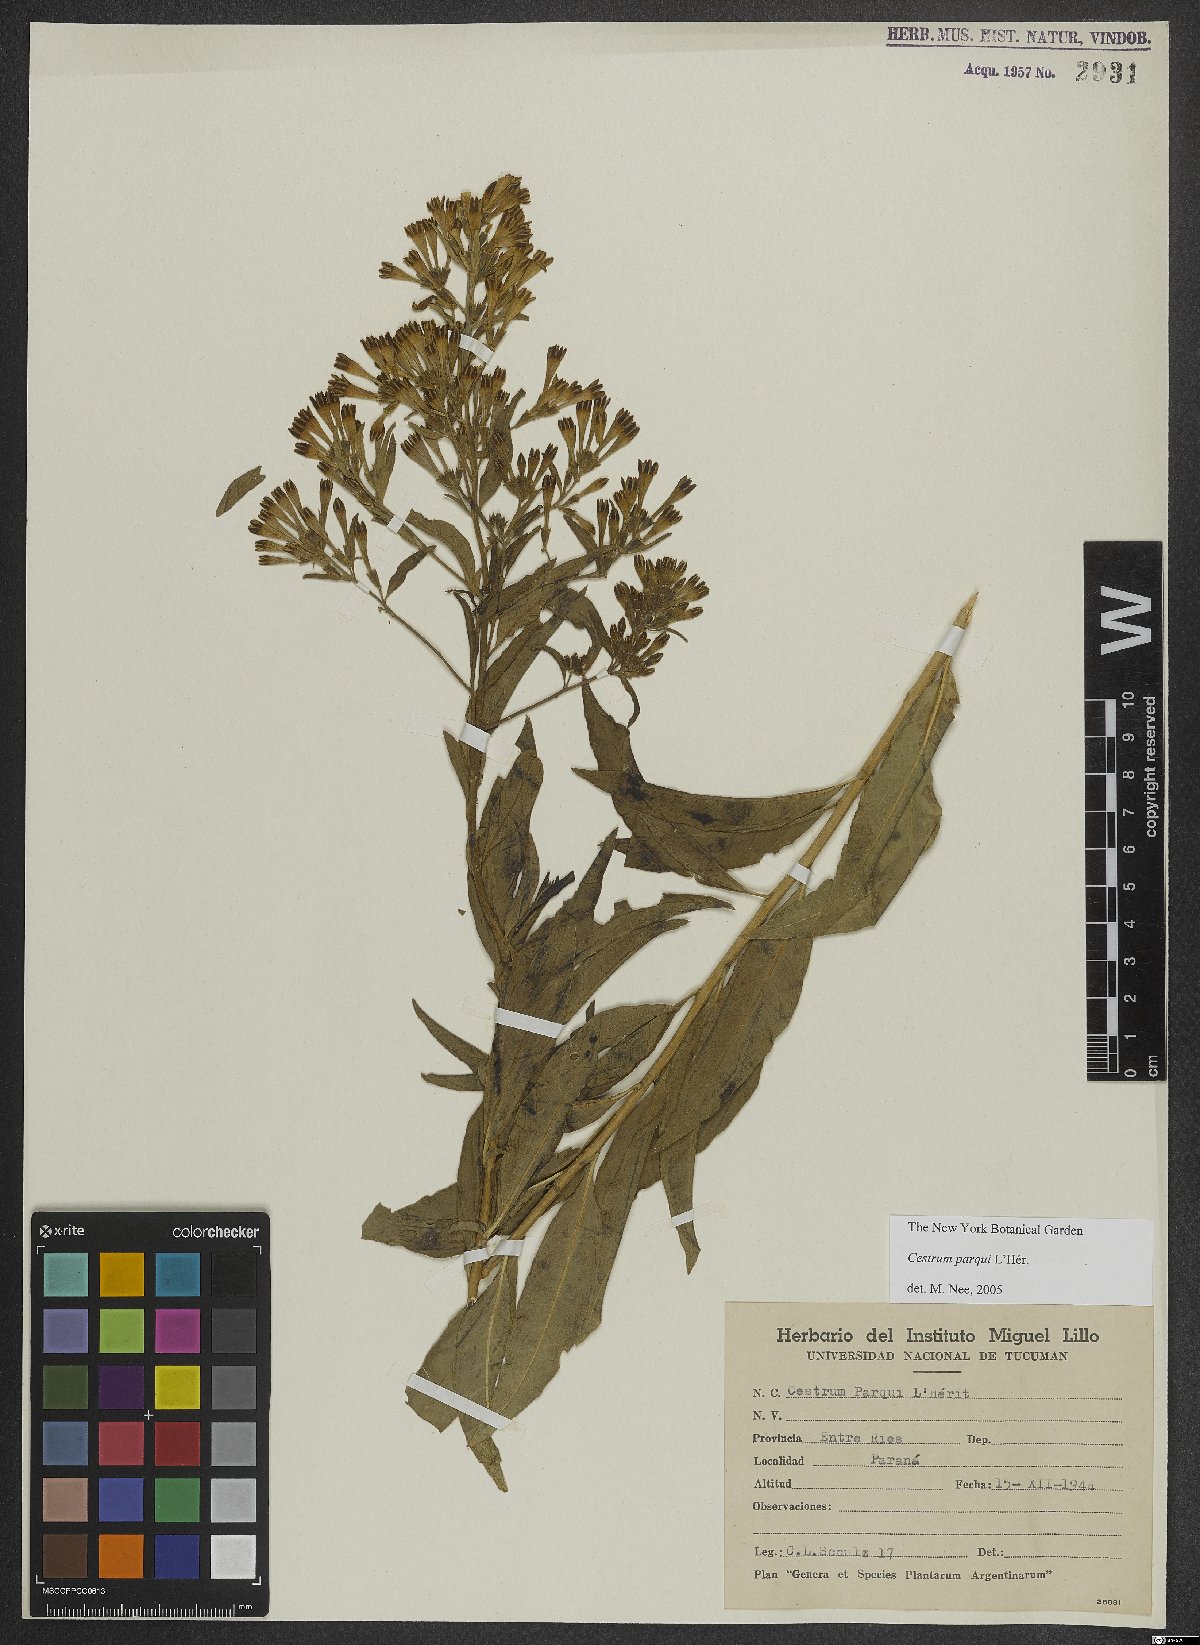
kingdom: Plantae
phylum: Tracheophyta
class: Magnoliopsida
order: Solanales
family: Solanaceae
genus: Cestrum
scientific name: Cestrum thyrsoideum
